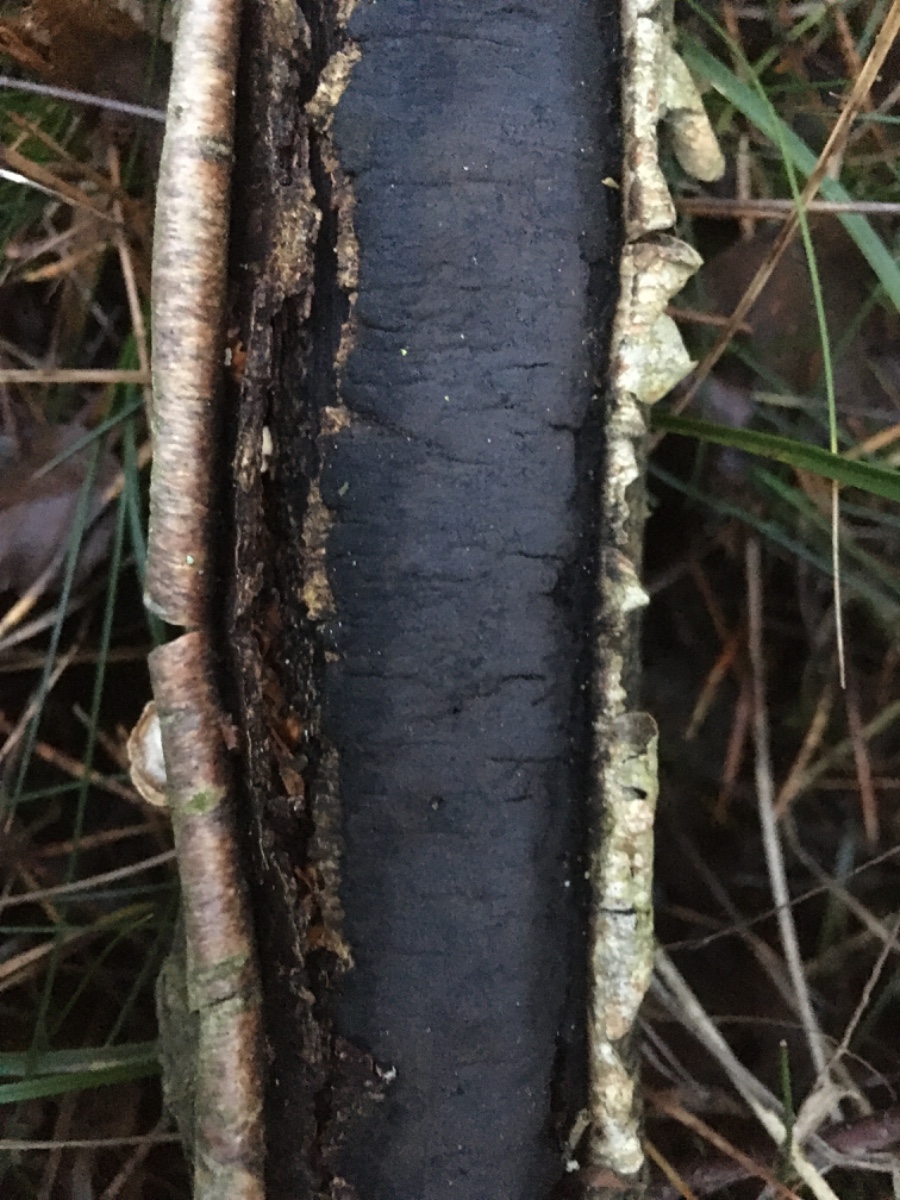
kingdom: Fungi
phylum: Ascomycota
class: Sordariomycetes
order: Xylariales
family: Diatrypaceae
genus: Diatrype
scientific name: Diatrype
